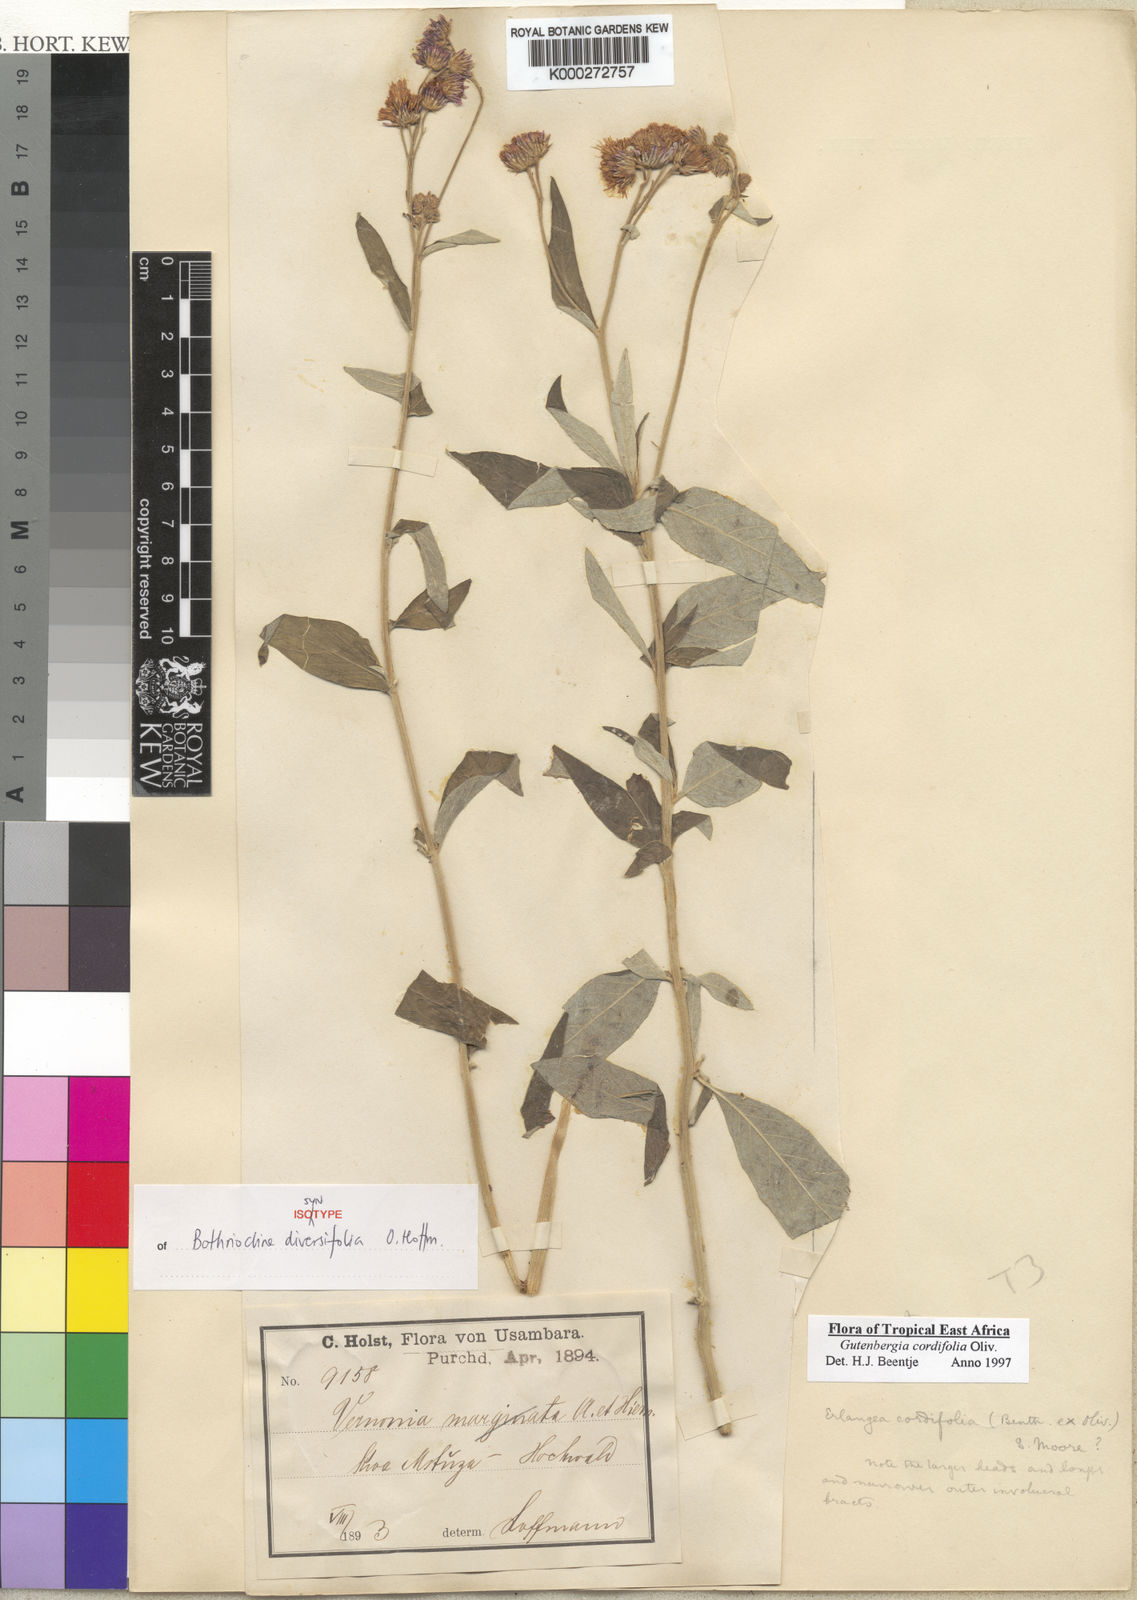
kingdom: Plantae
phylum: Tracheophyta
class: Magnoliopsida
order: Asterales
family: Asteraceae
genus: Gutenbergia
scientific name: Gutenbergia cordifolia
